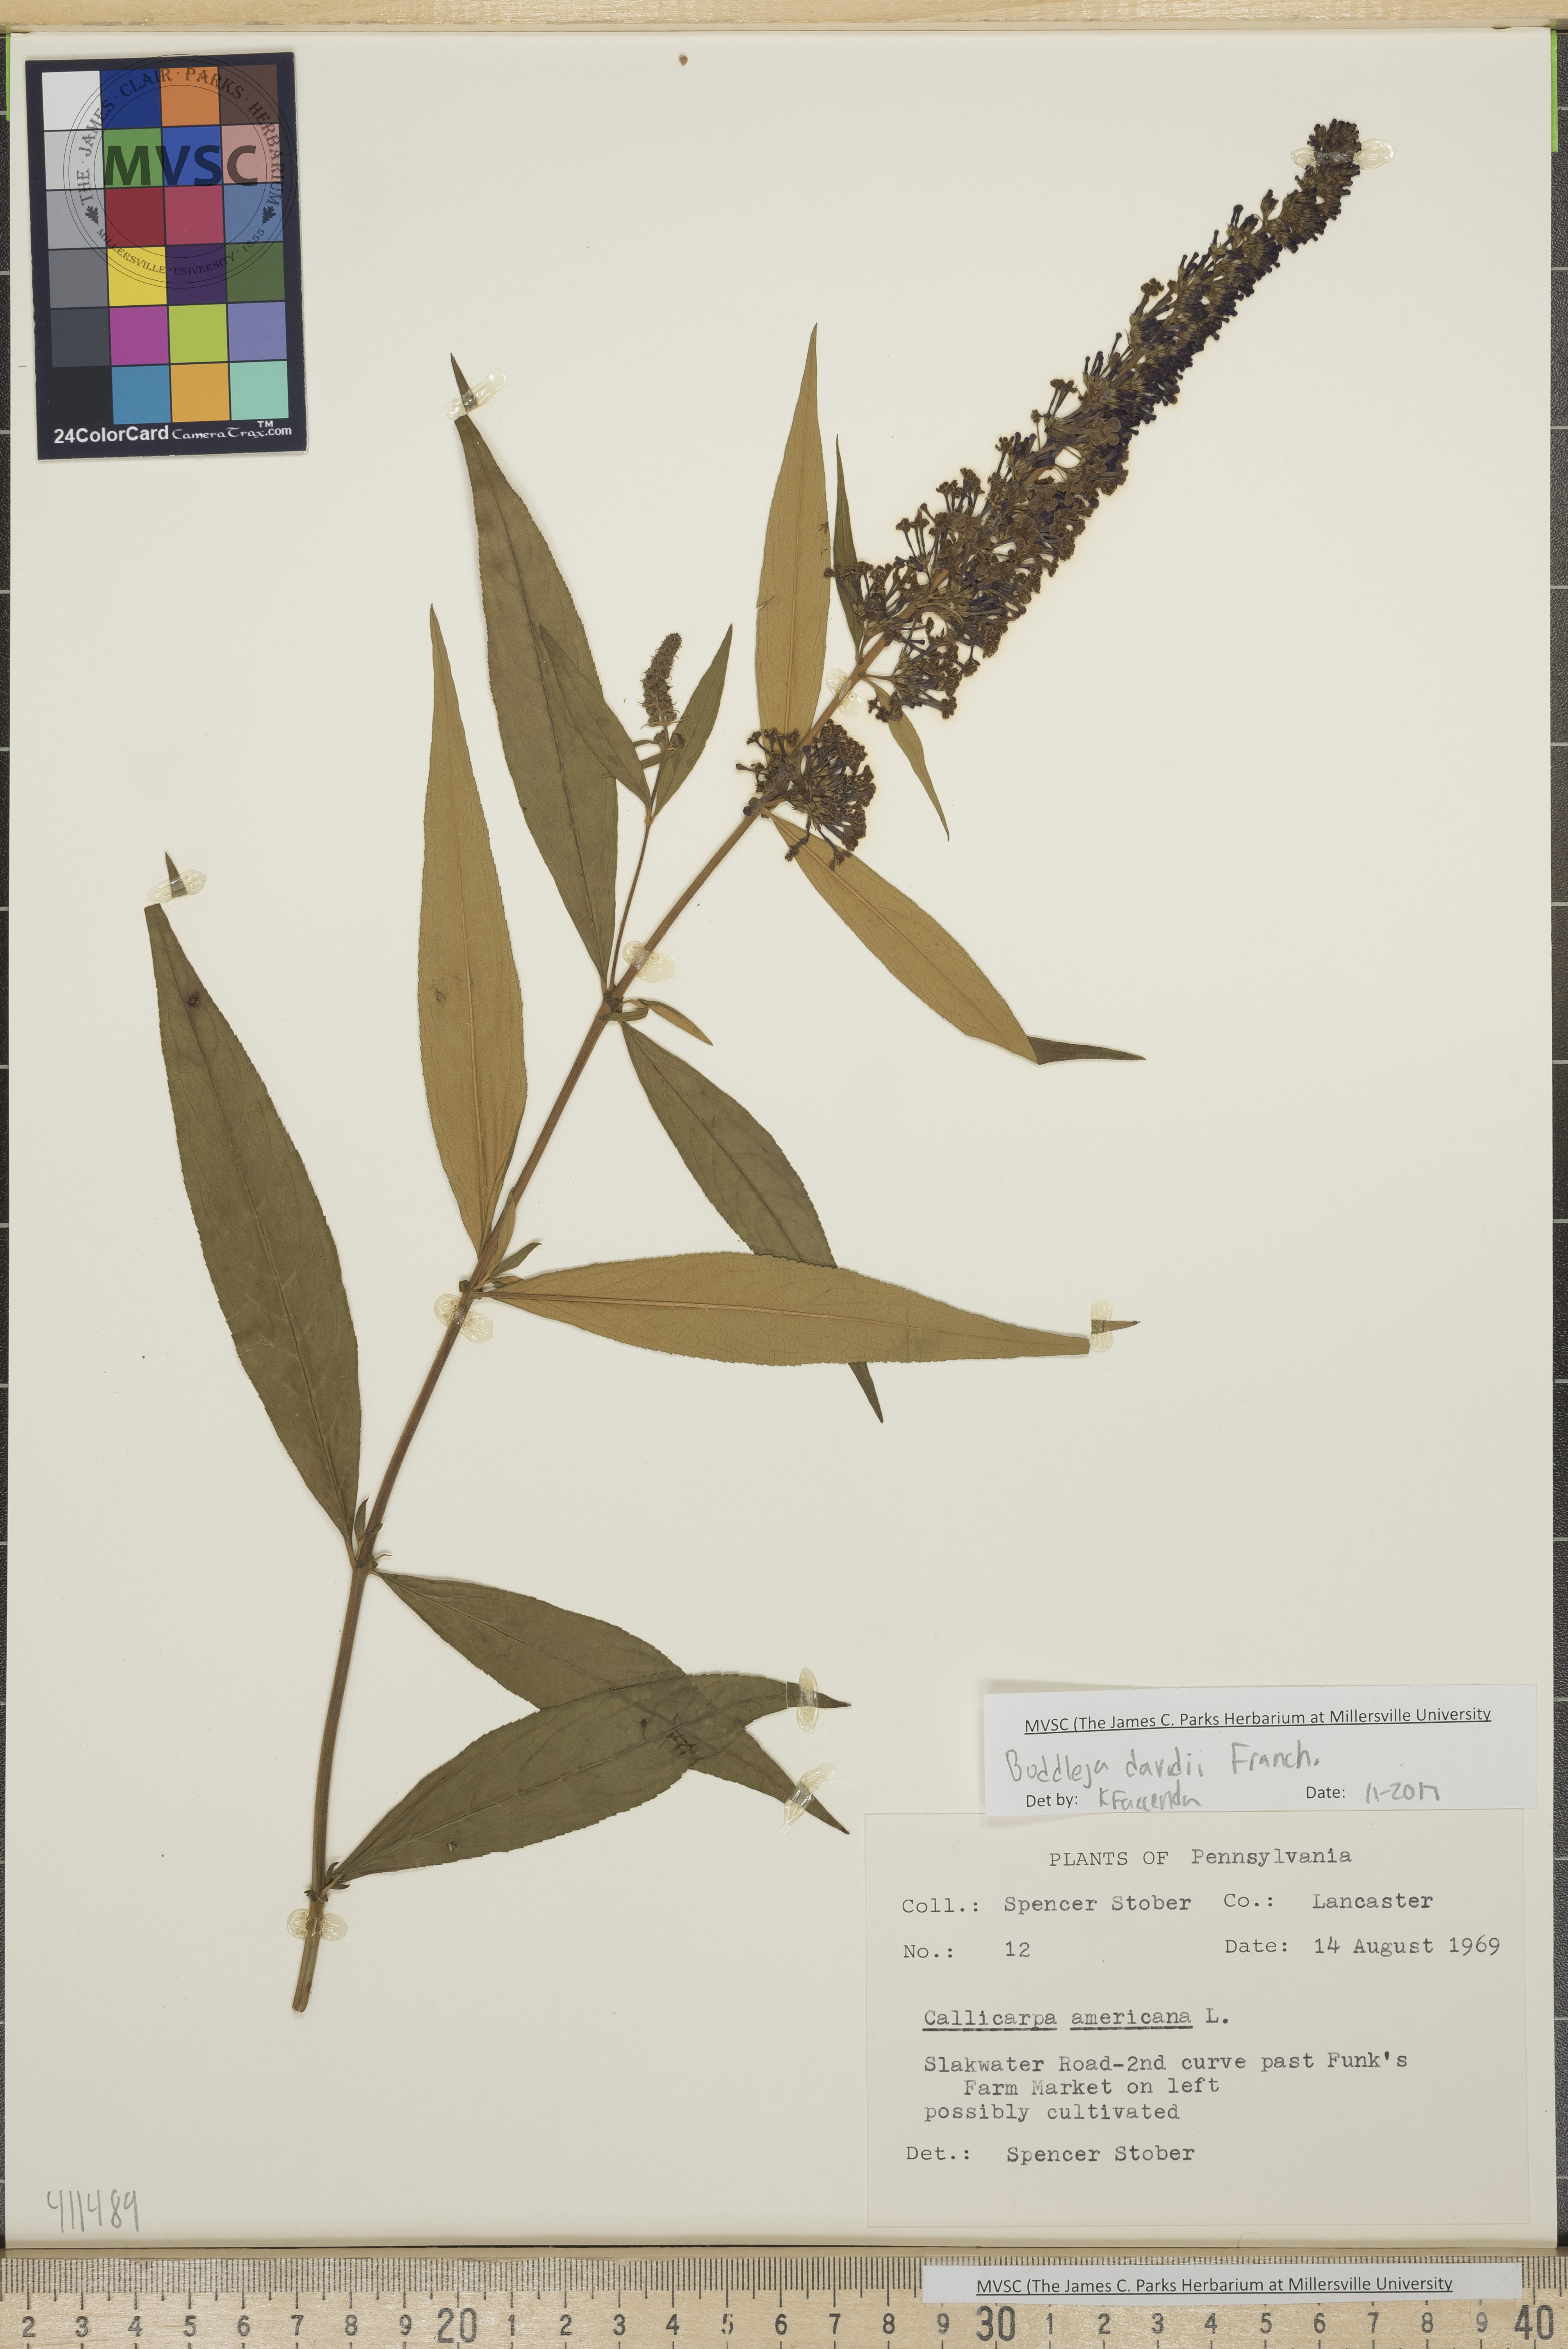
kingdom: Plantae
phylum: Tracheophyta
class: Magnoliopsida
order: Lamiales
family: Scrophulariaceae
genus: Buddleja
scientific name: Buddleja davidii
